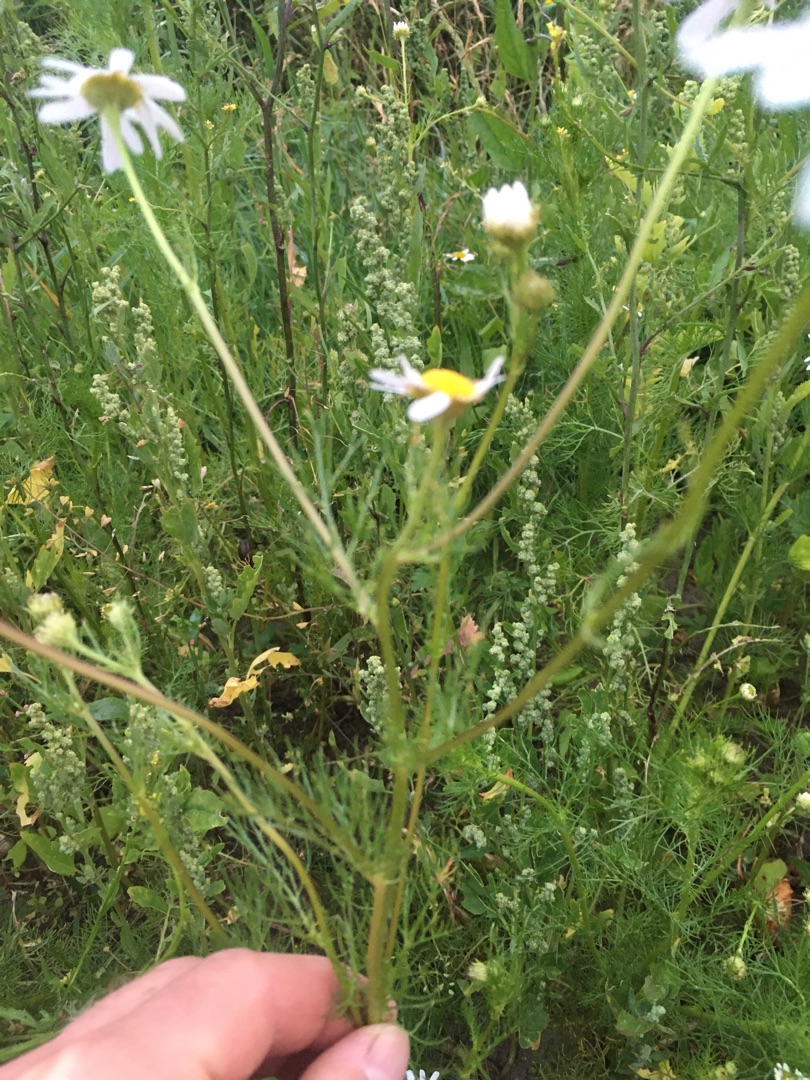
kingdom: Plantae
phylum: Tracheophyta
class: Magnoliopsida
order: Asterales
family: Asteraceae
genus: Tripleurospermum
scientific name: Tripleurospermum inodorum
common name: Lugtløs kamille
